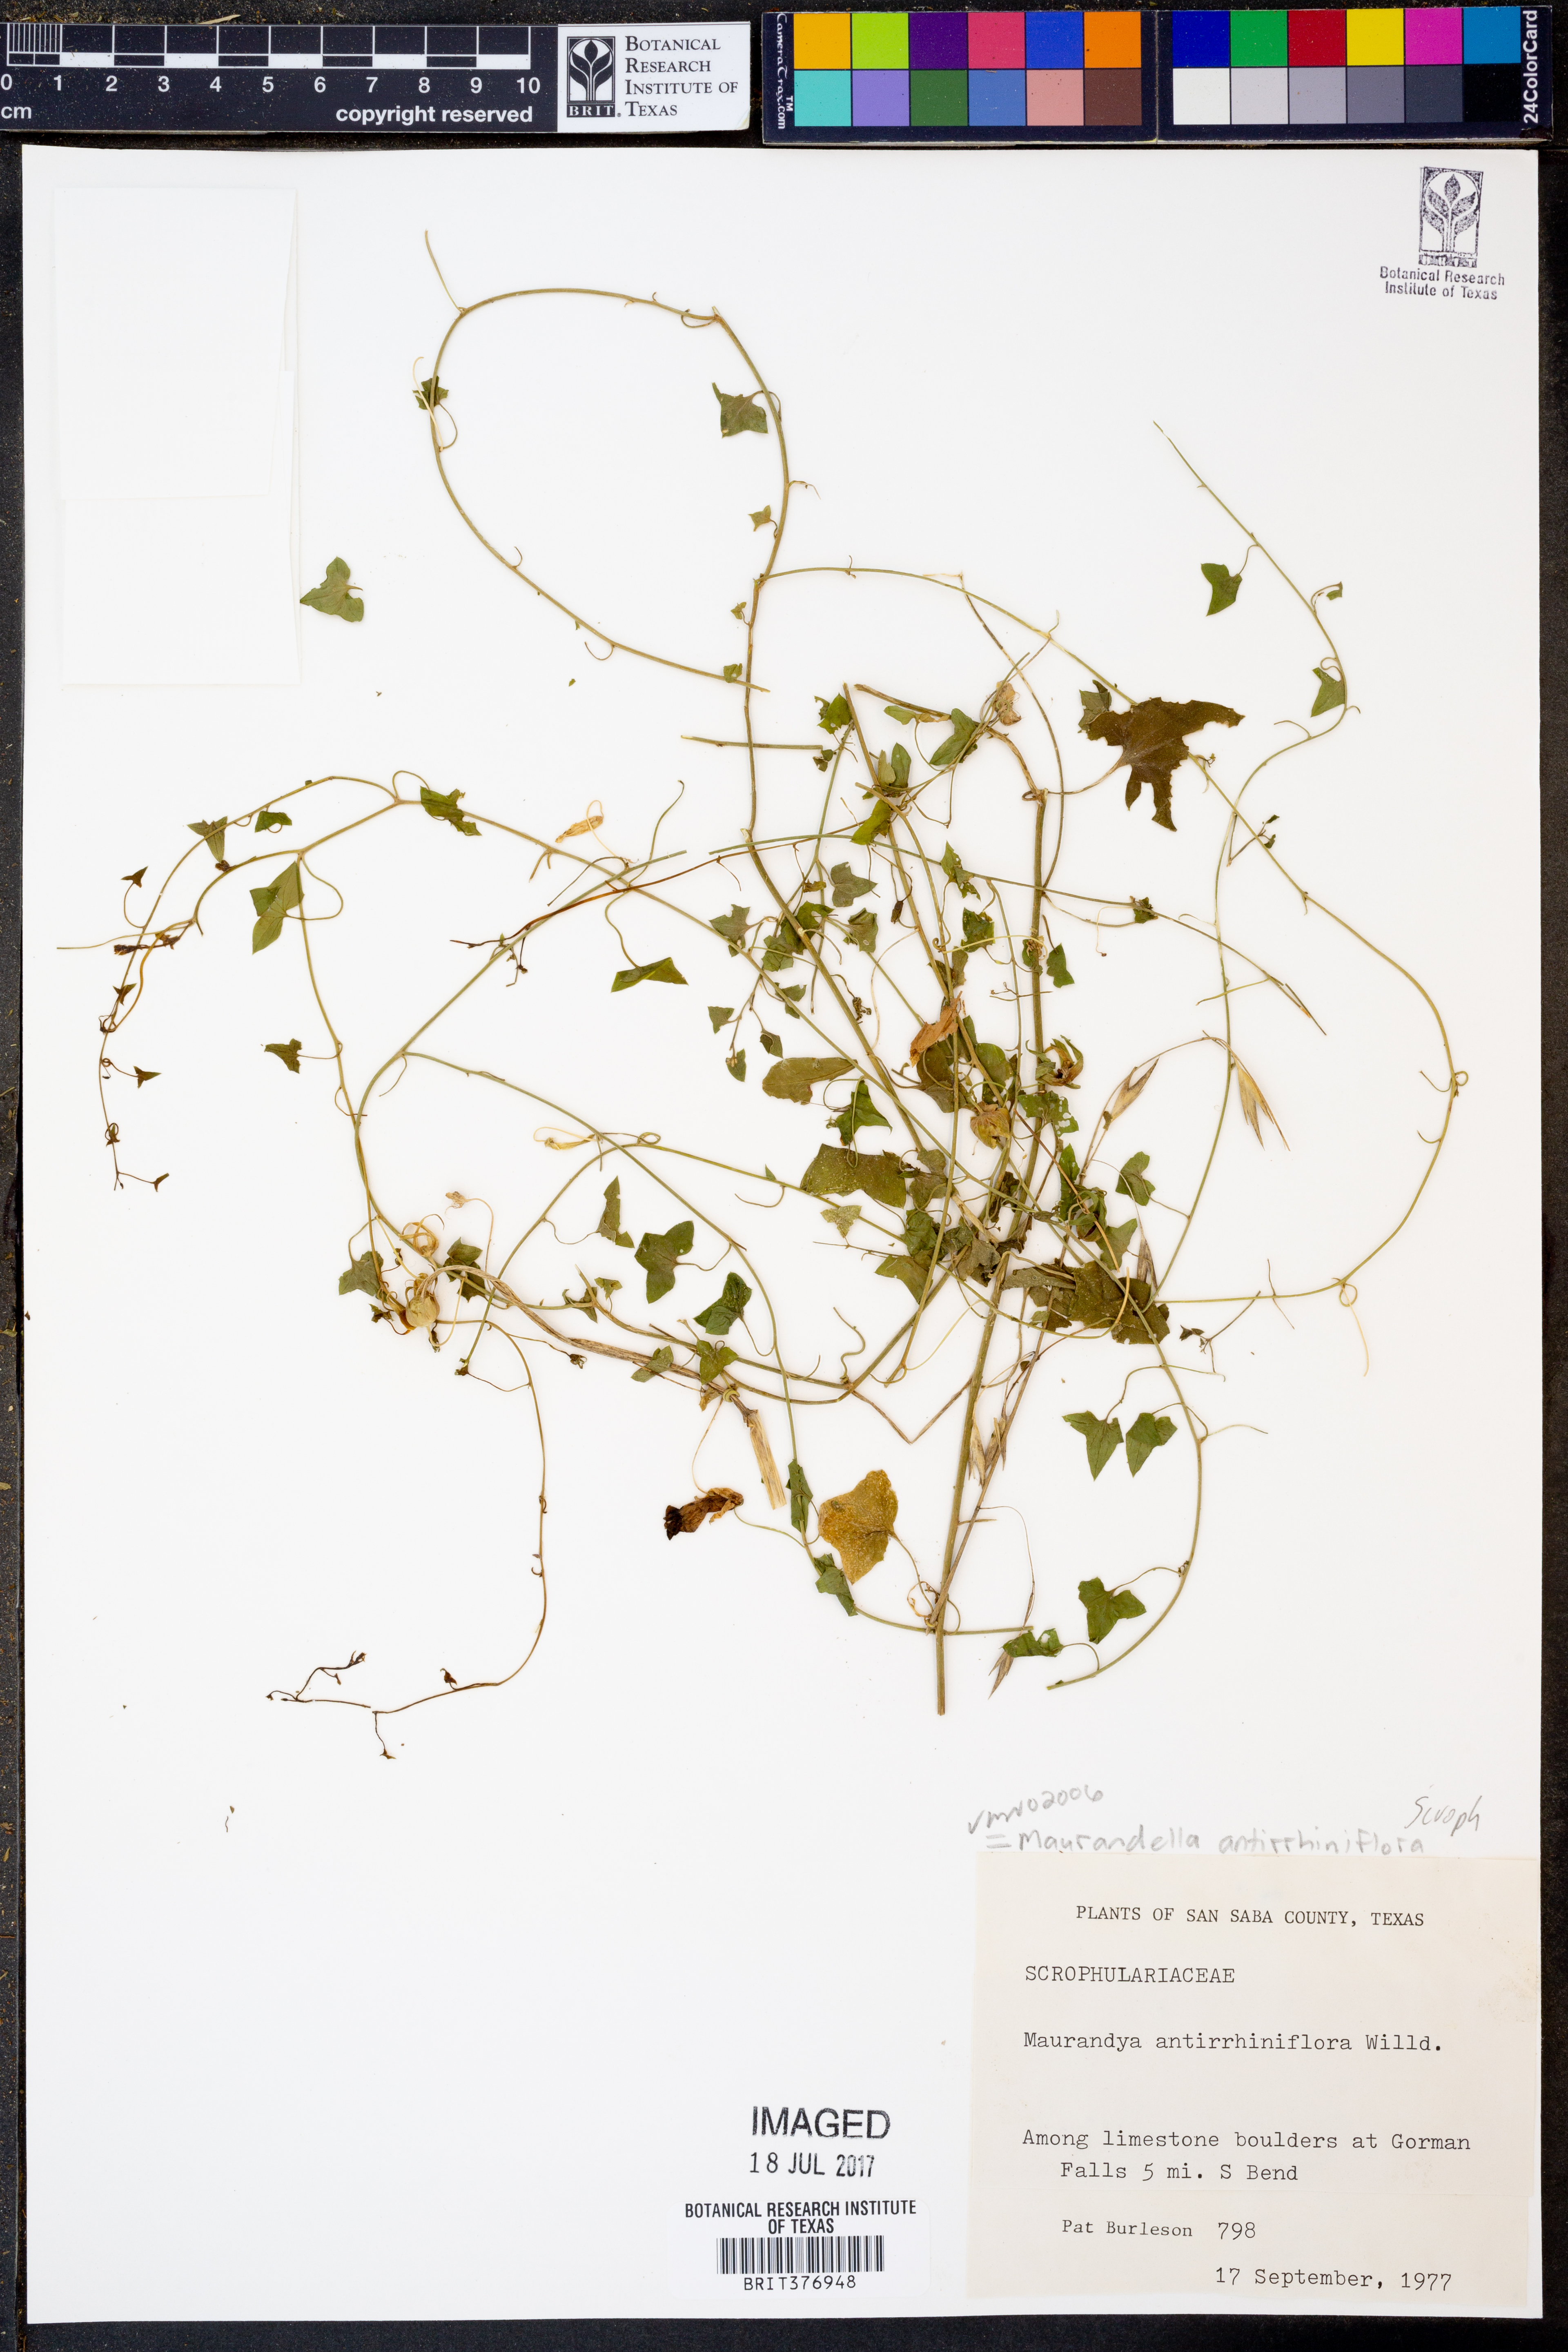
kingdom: Plantae
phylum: Tracheophyta
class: Magnoliopsida
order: Lamiales
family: Scrophulariaceae
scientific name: Scrophulariaceae
